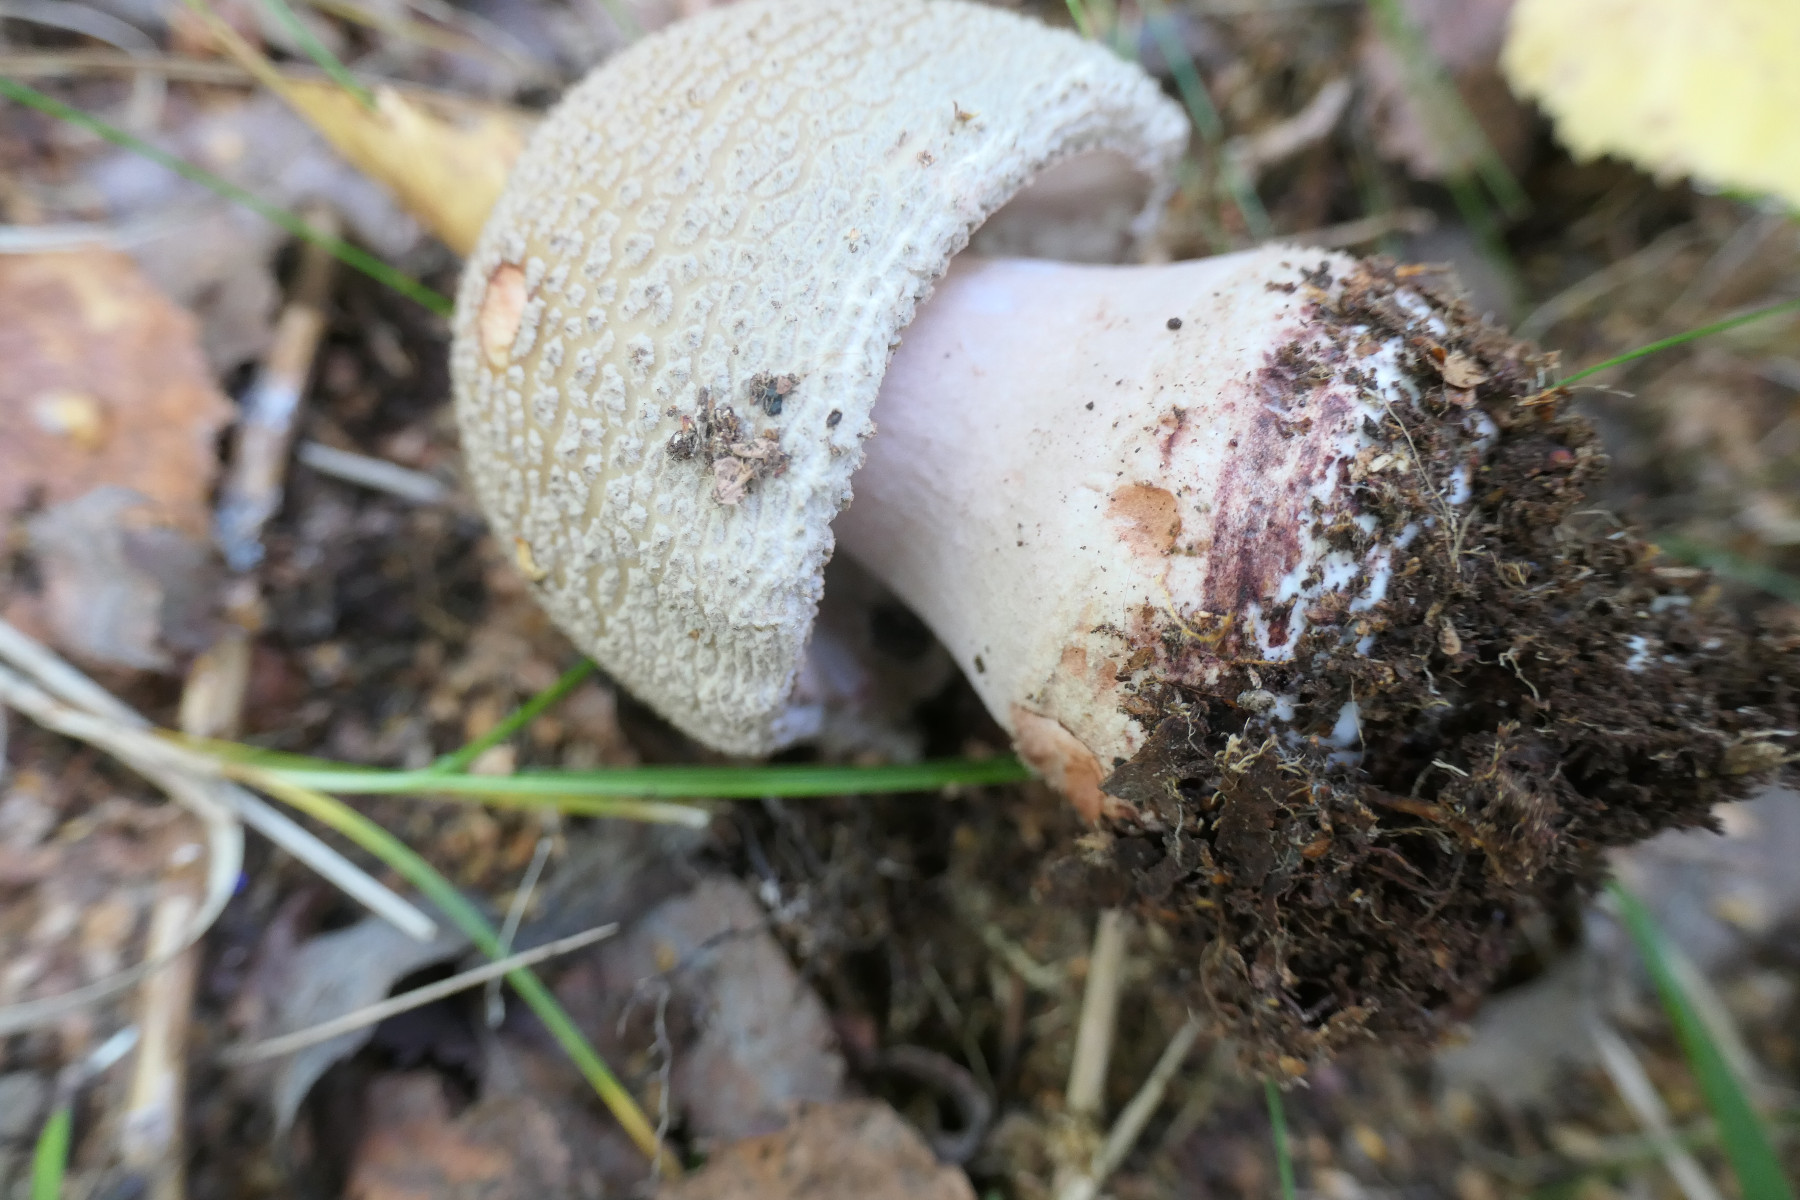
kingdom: Fungi
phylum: Basidiomycota
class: Agaricomycetes
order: Agaricales
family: Amanitaceae
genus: Amanita
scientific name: Amanita rubescens
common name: rødmende fluesvamp
